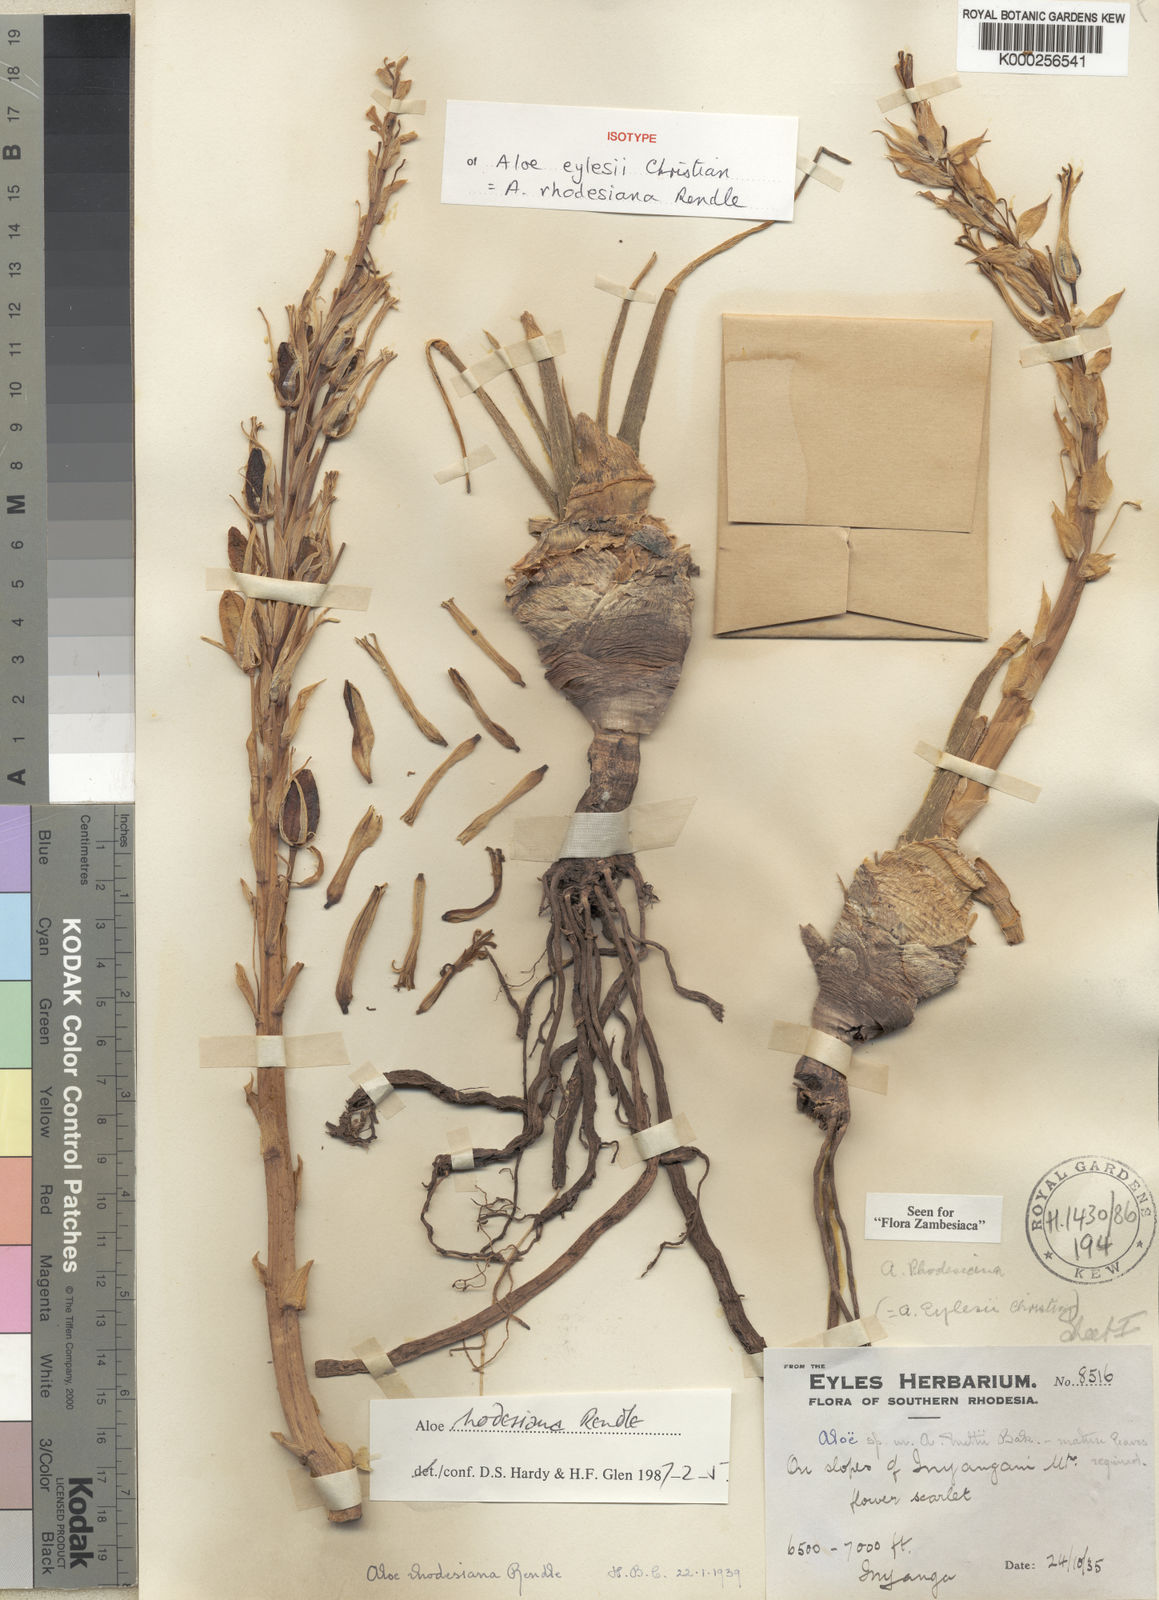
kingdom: Plantae
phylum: Tracheophyta
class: Liliopsida
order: Asparagales
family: Asphodelaceae
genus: Aloe
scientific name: Aloe rhodesiana
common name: Rhodesian aloe
